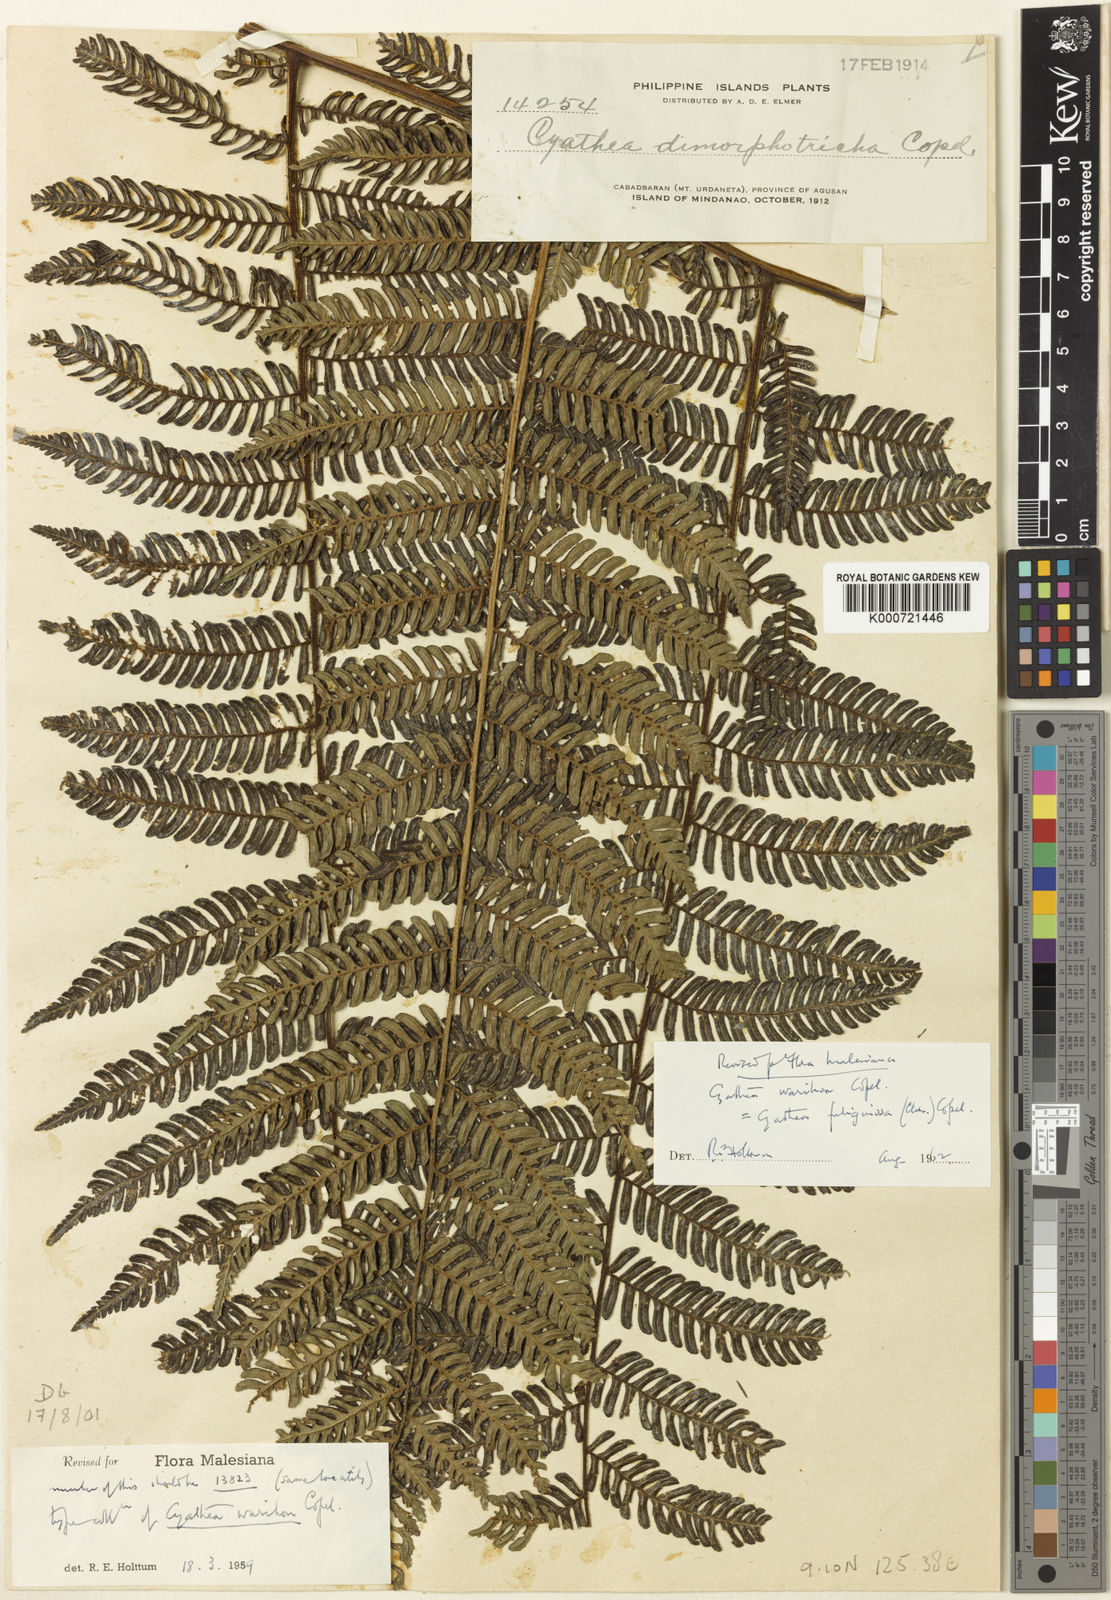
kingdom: Plantae
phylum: Tracheophyta
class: Polypodiopsida
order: Cyatheales
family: Cyatheaceae
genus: Alsophila
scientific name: Alsophila fuliginosa
